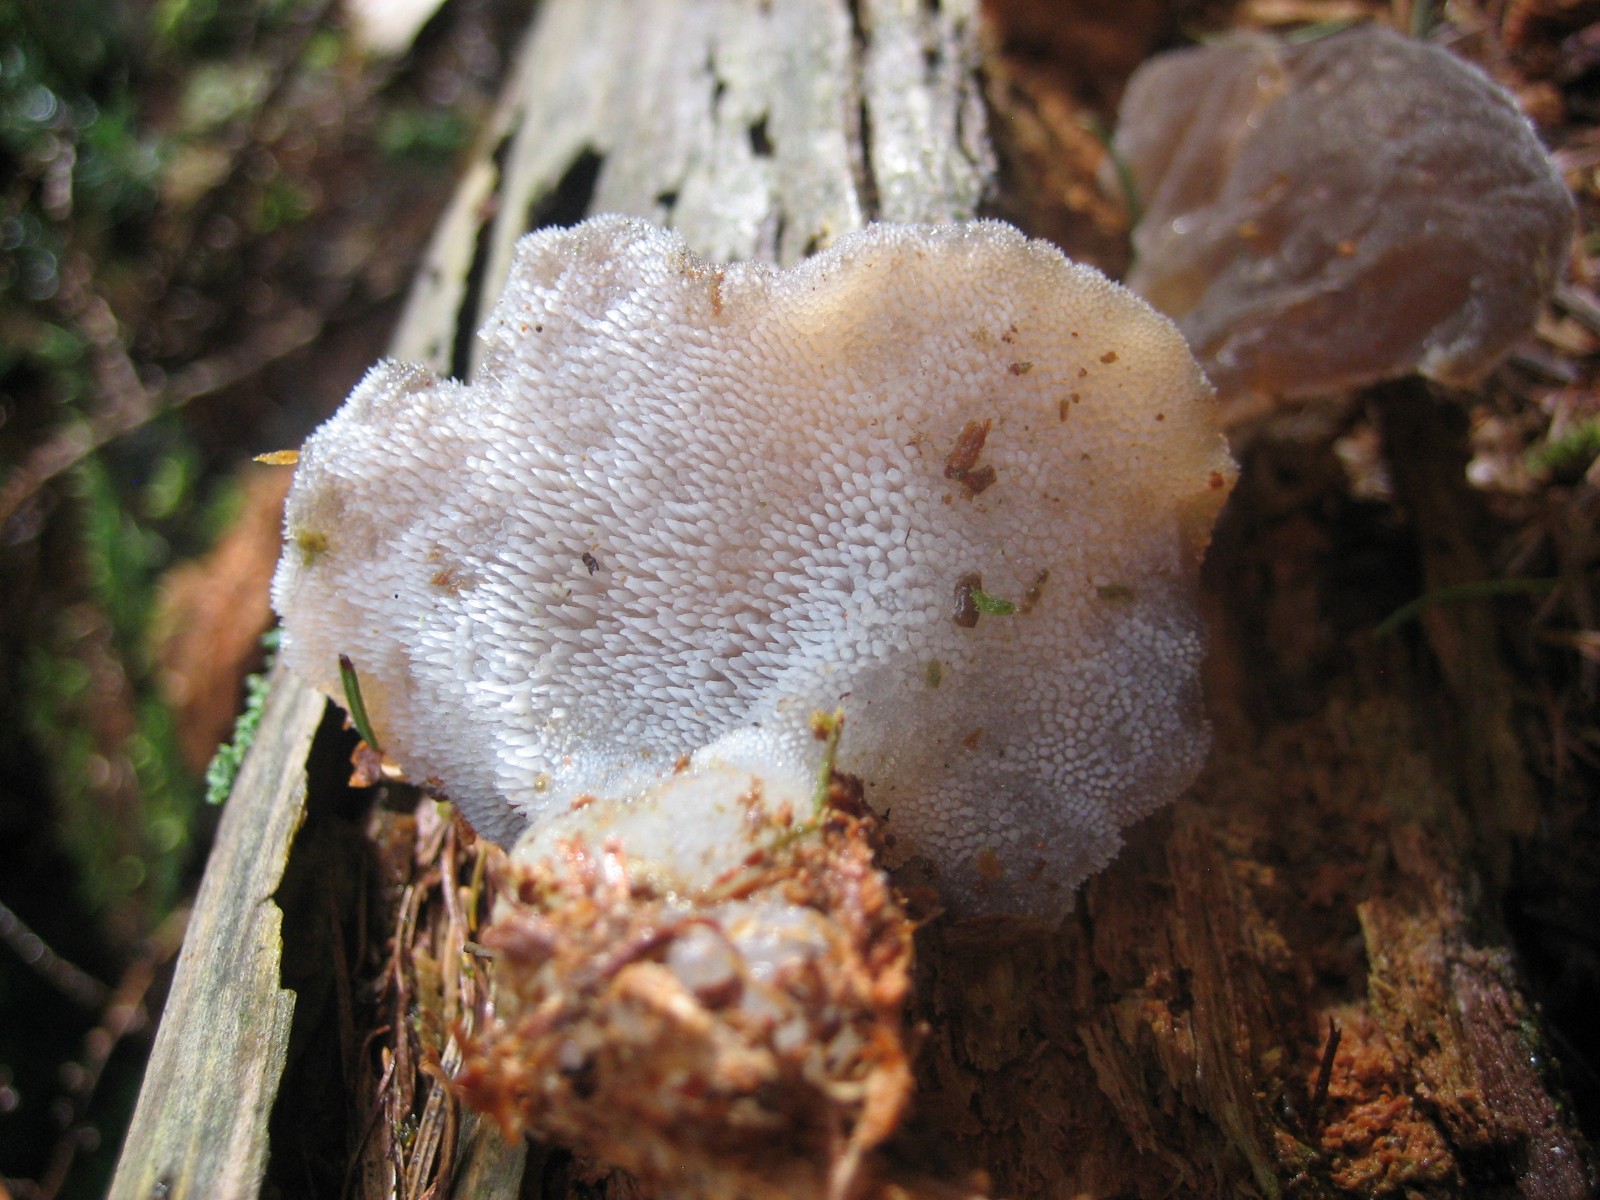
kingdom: Fungi
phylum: Basidiomycota
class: Agaricomycetes
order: Auriculariales
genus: Pseudohydnum
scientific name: Pseudohydnum gelatinosum
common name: bævretand
